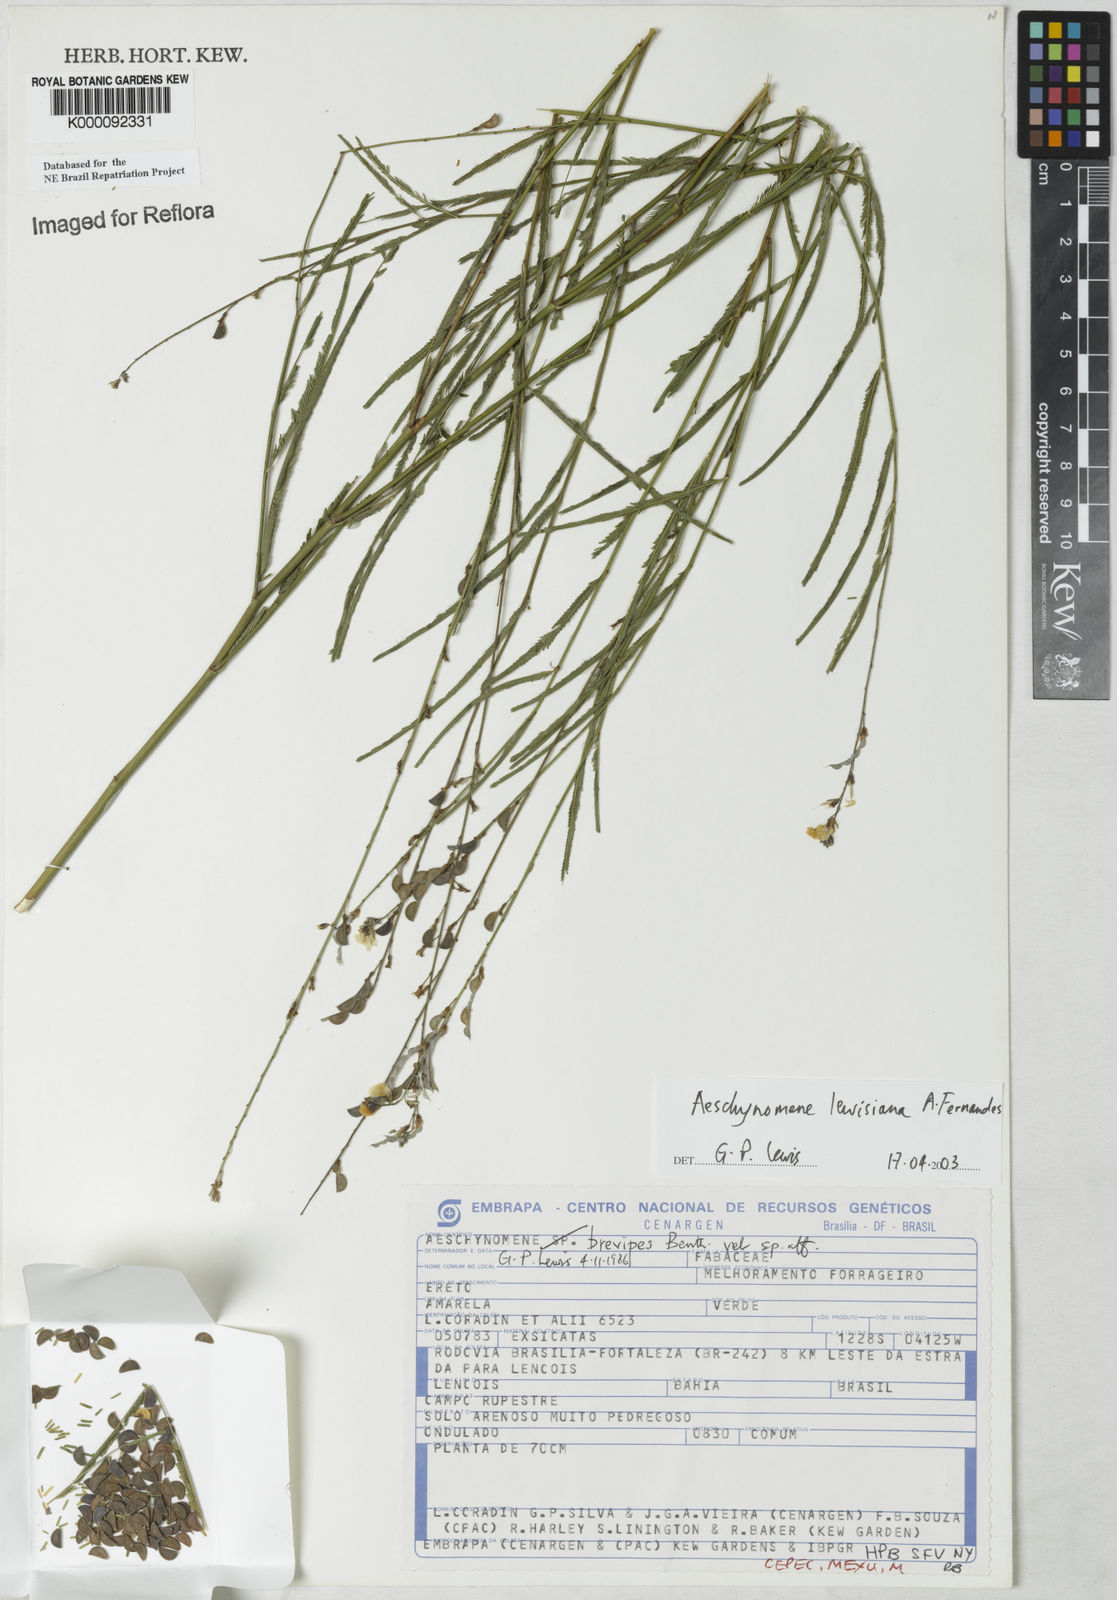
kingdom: Plantae
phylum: Tracheophyta
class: Magnoliopsida
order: Fabales
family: Fabaceae
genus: Ctenodon
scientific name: Ctenodon lewisianus
